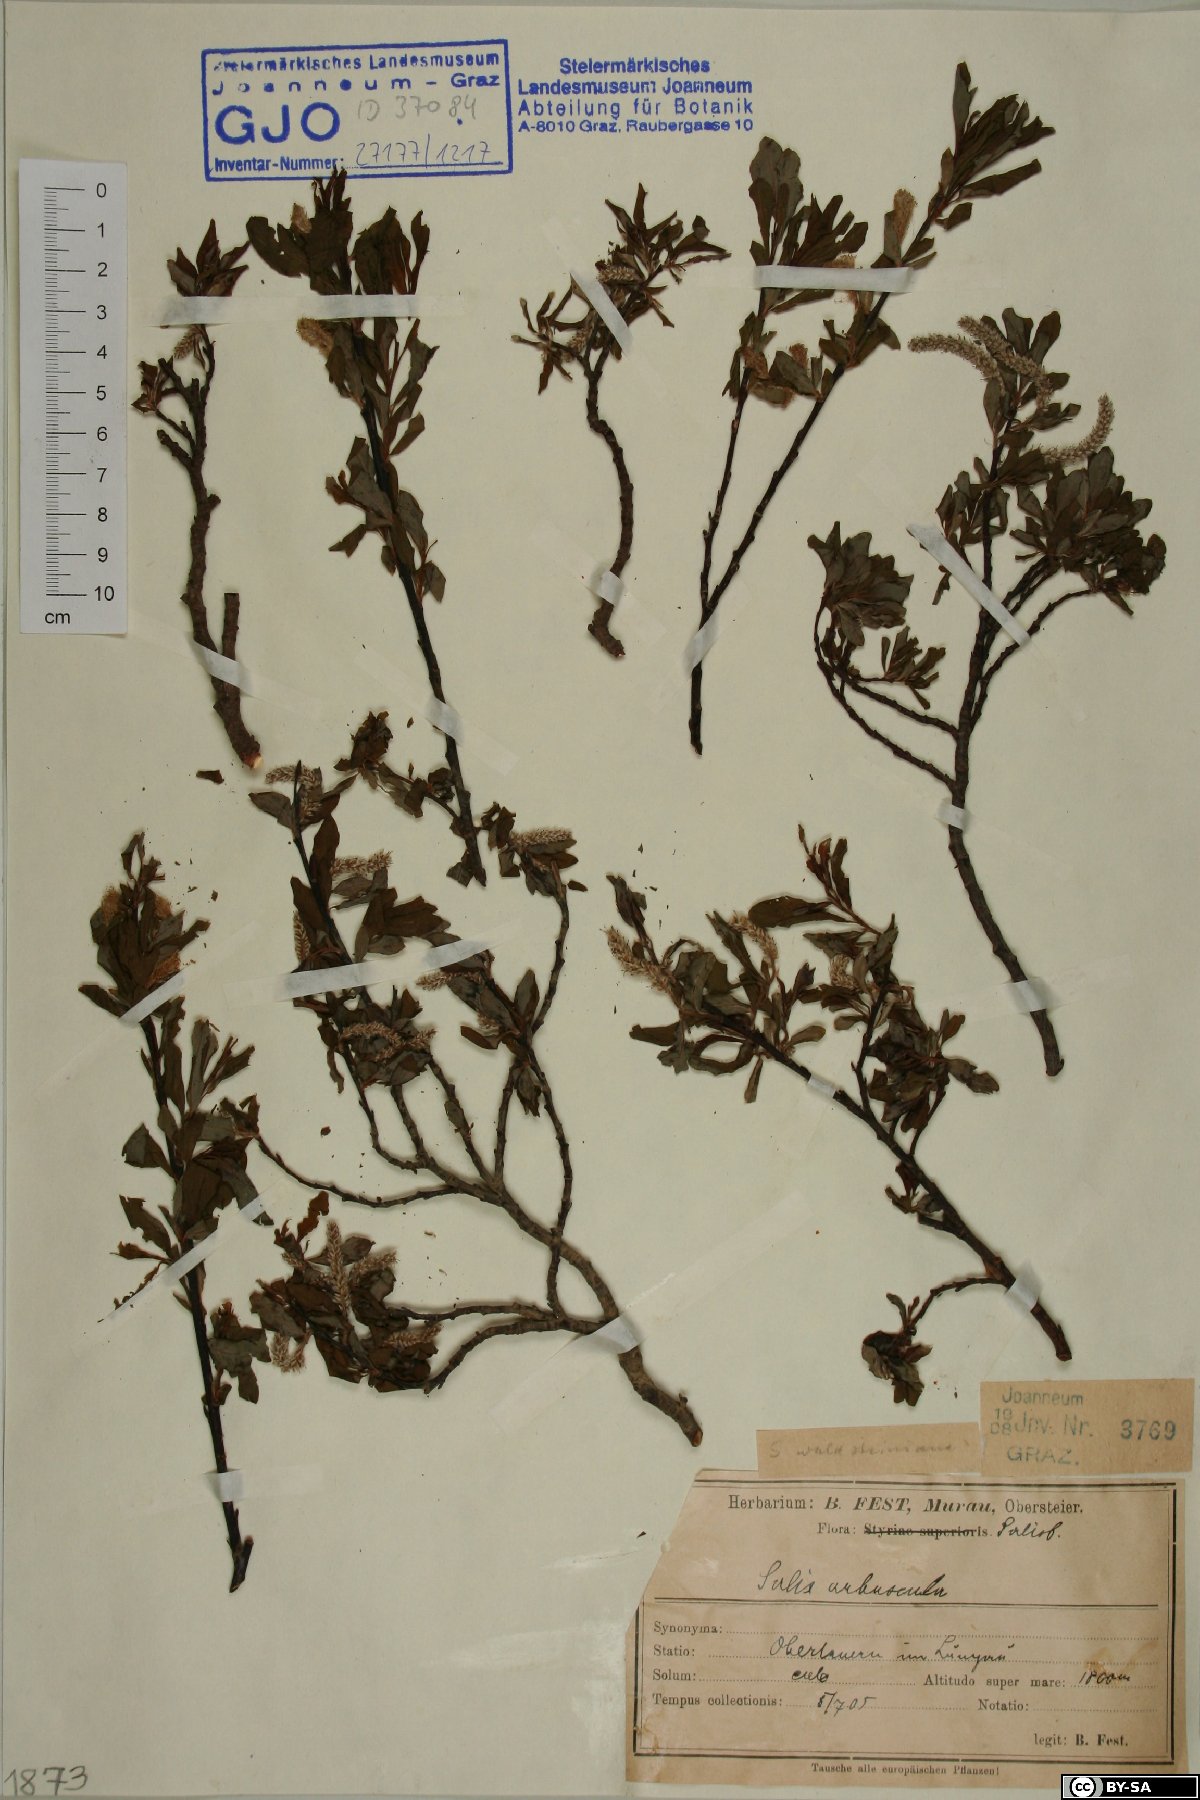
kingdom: Plantae
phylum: Tracheophyta
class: Magnoliopsida
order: Malpighiales
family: Salicaceae
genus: Salix
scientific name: Salix waldsteiniana
